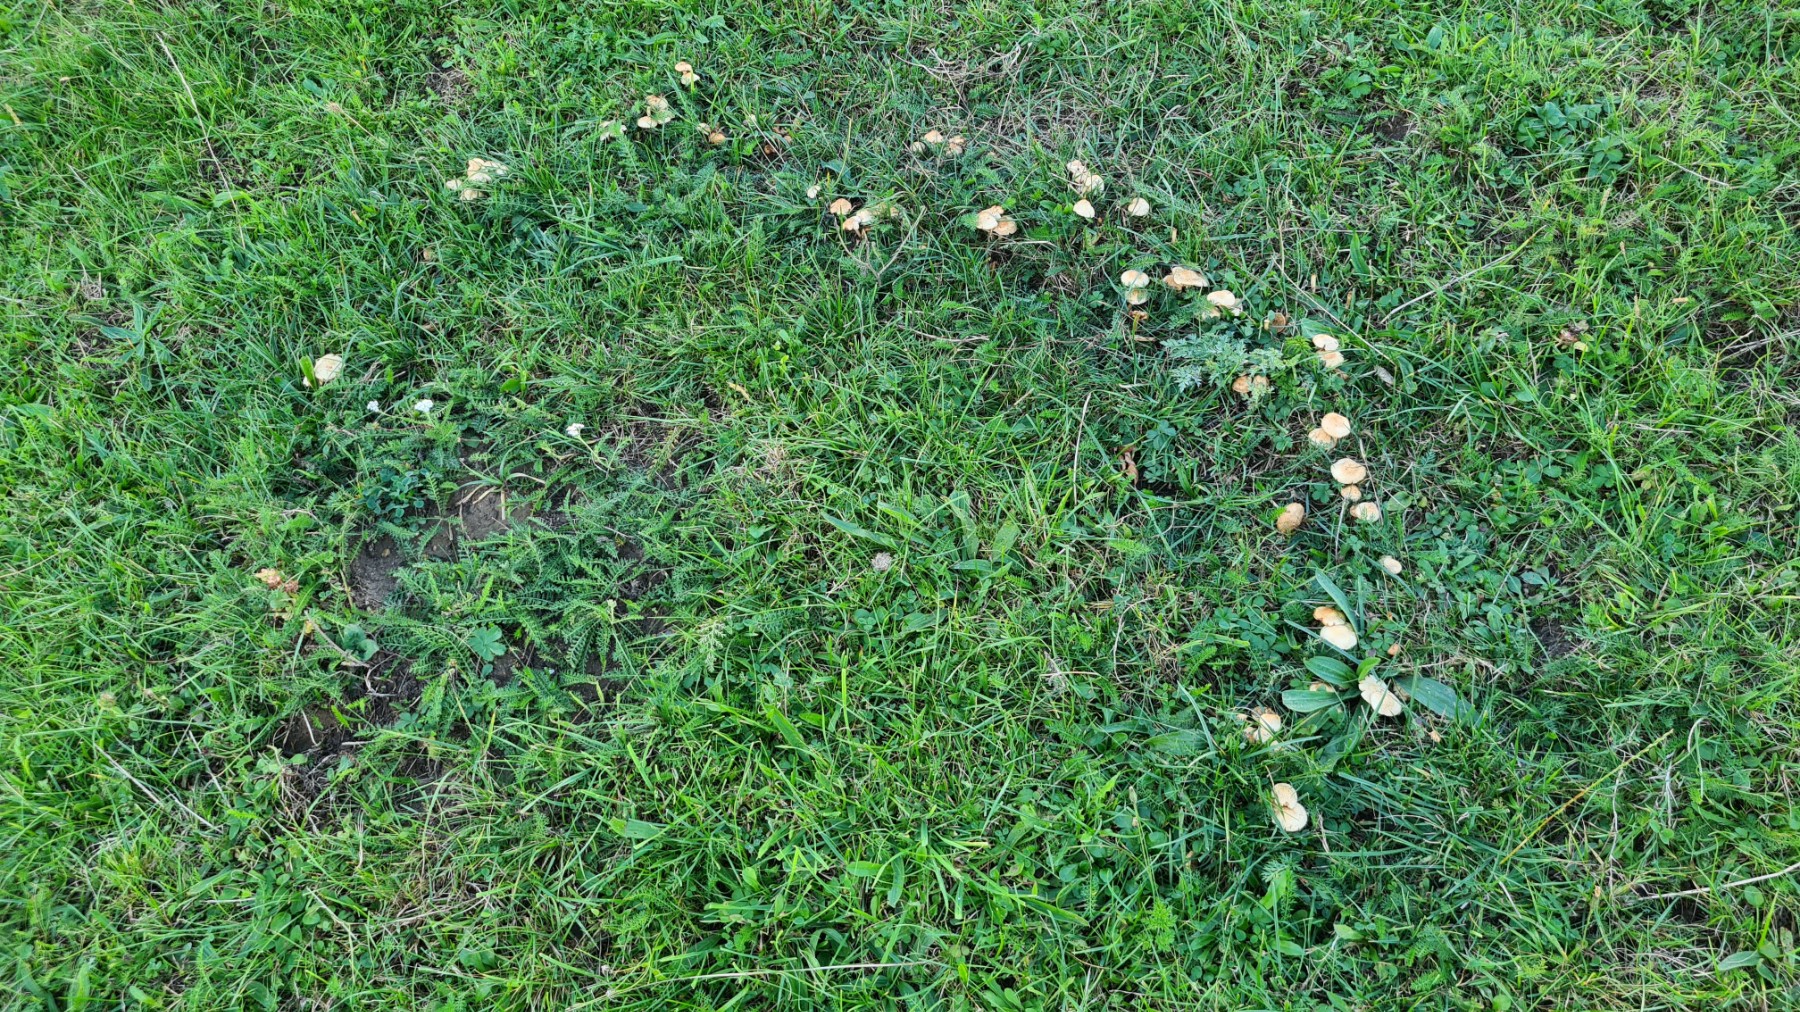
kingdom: Fungi
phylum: Basidiomycota
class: Agaricomycetes
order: Agaricales
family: Marasmiaceae
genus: Marasmius
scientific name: Marasmius oreades
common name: elledans-bruskhat
